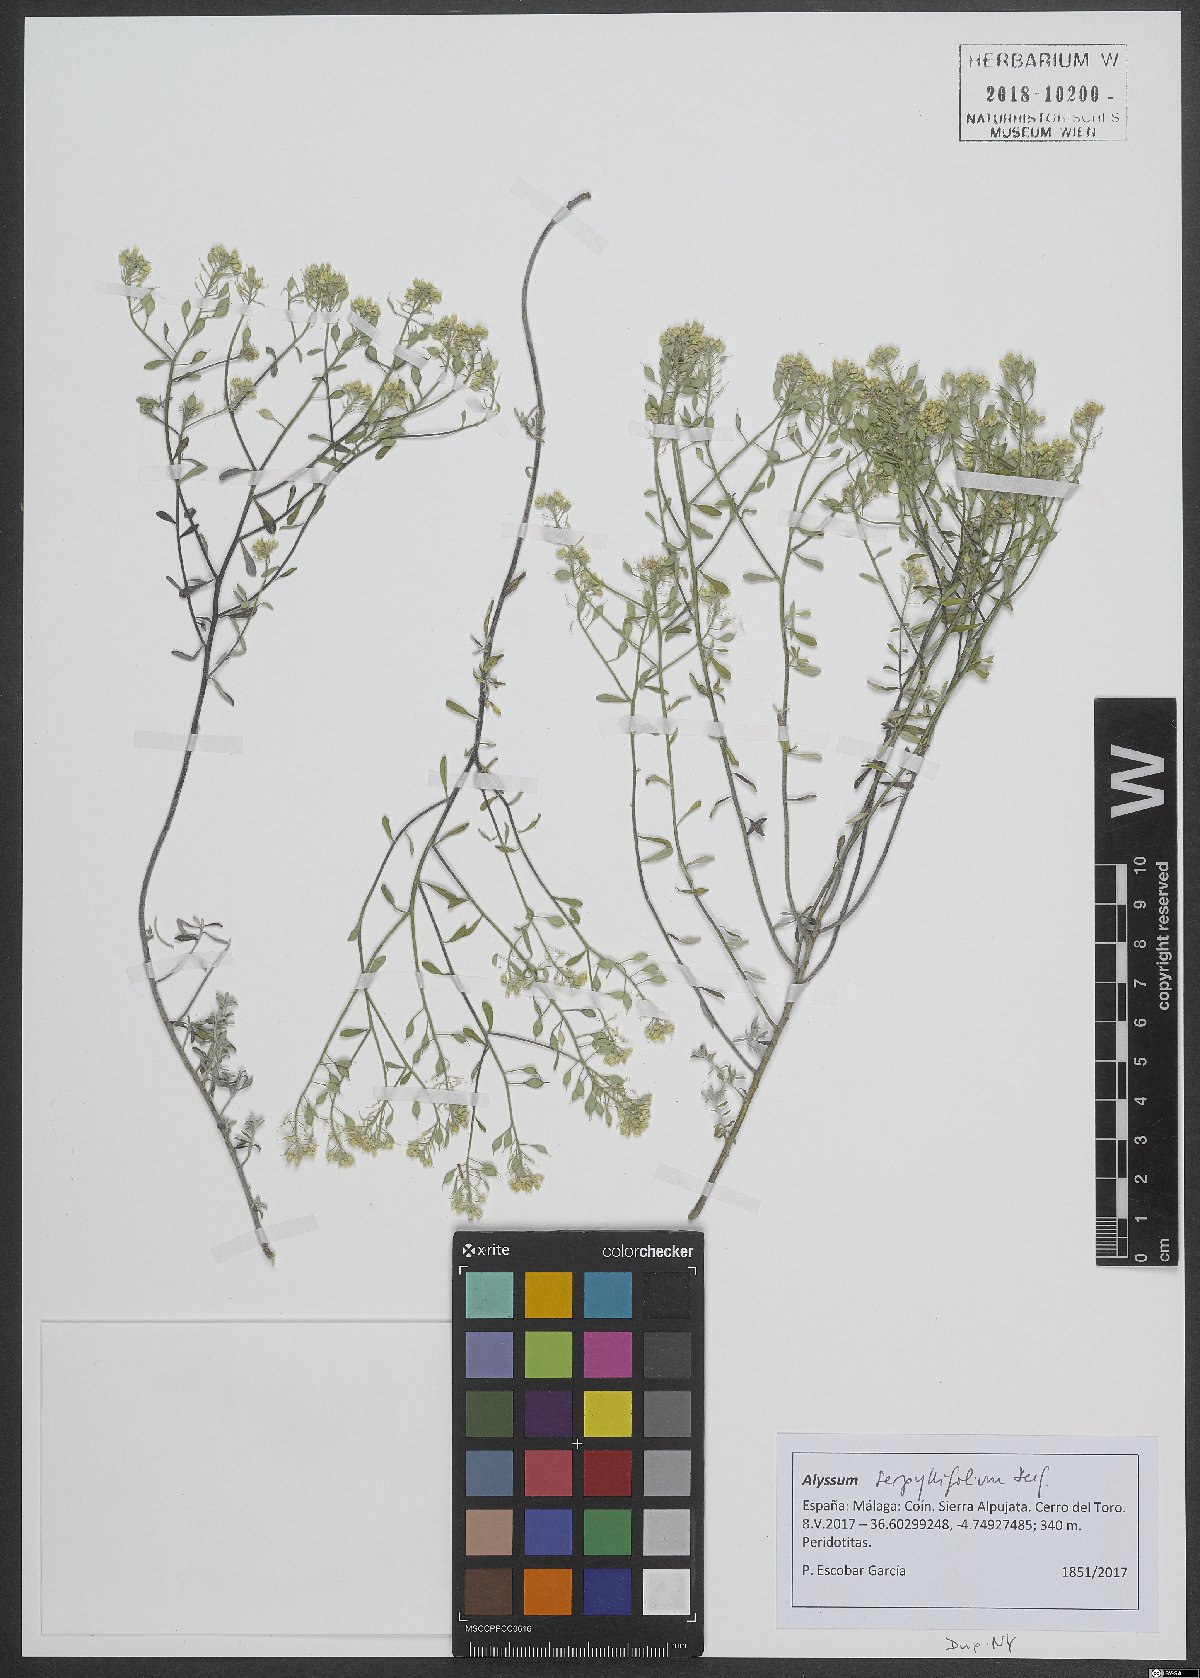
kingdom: Plantae
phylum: Tracheophyta
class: Magnoliopsida
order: Brassicales
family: Brassicaceae
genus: Odontarrhena
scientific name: Odontarrhena serpyllifolia
